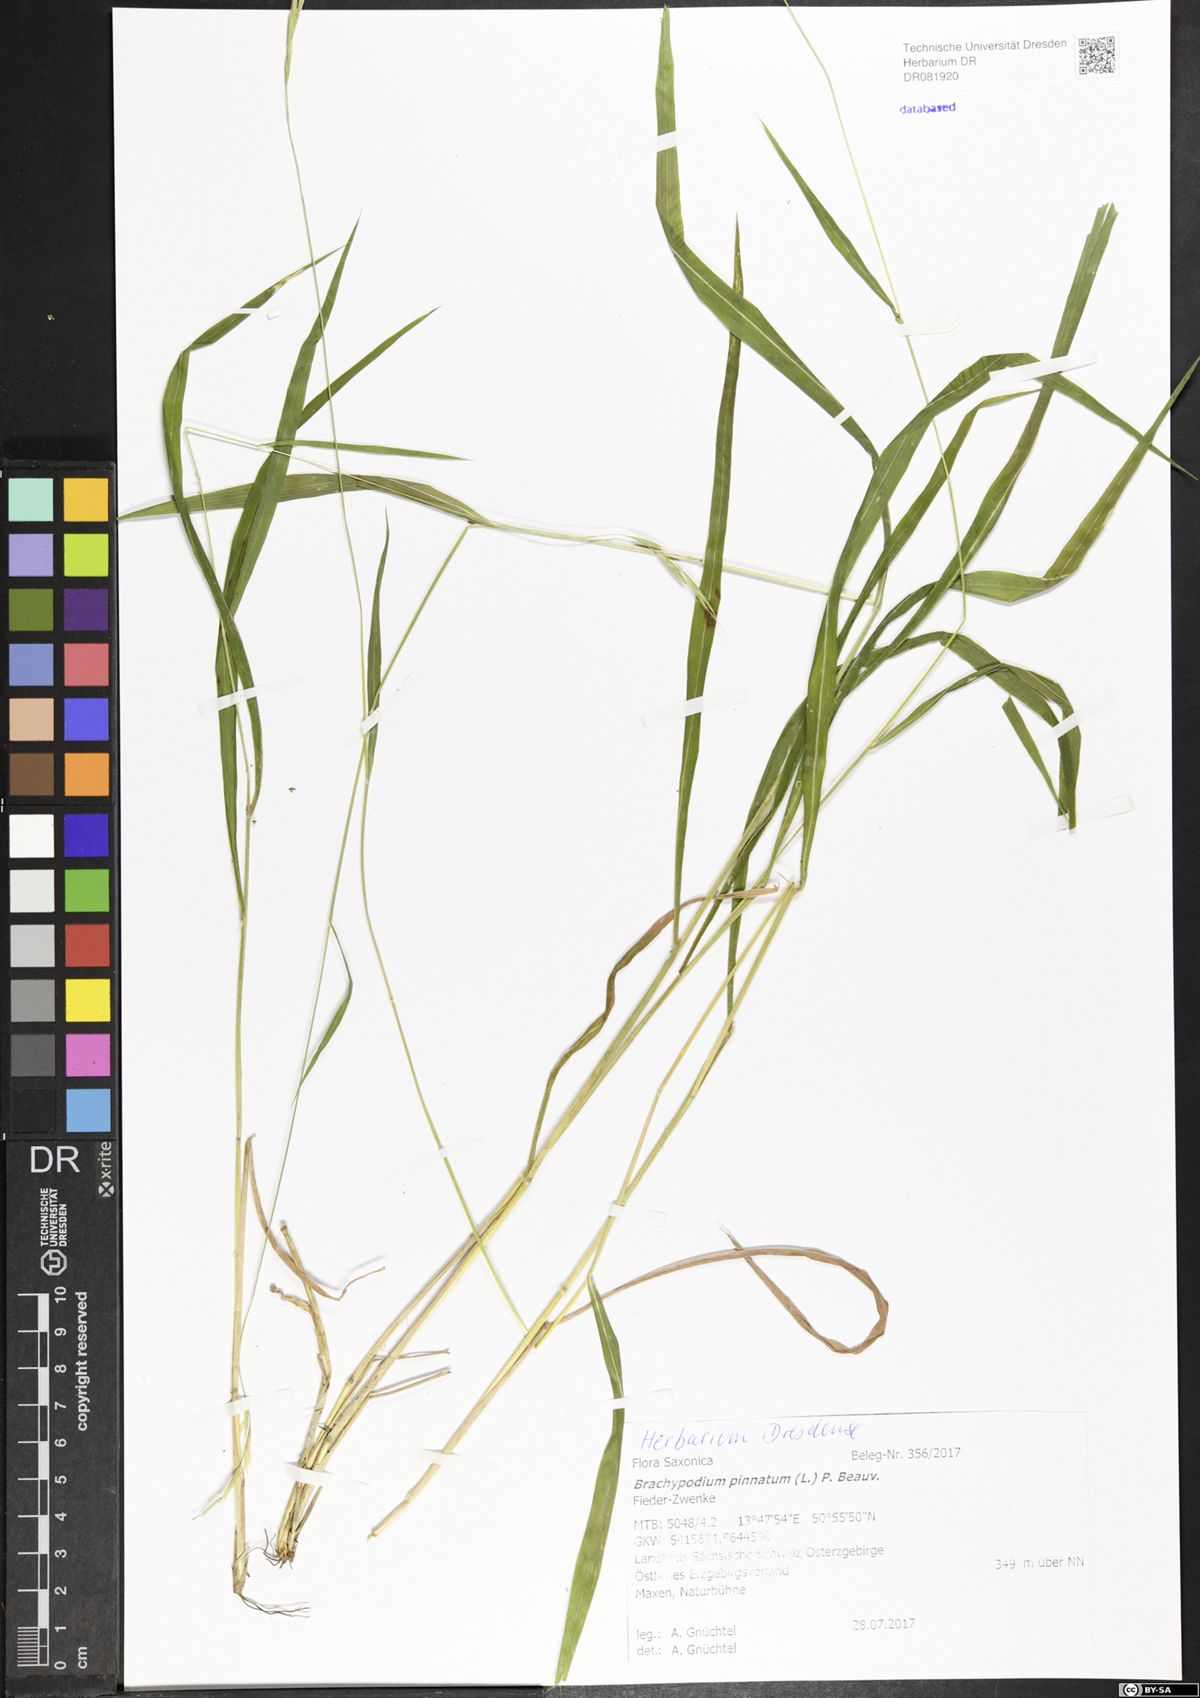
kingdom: Plantae
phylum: Tracheophyta
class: Liliopsida
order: Poales
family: Poaceae
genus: Brachypodium
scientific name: Brachypodium pinnatum
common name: Tor grass
